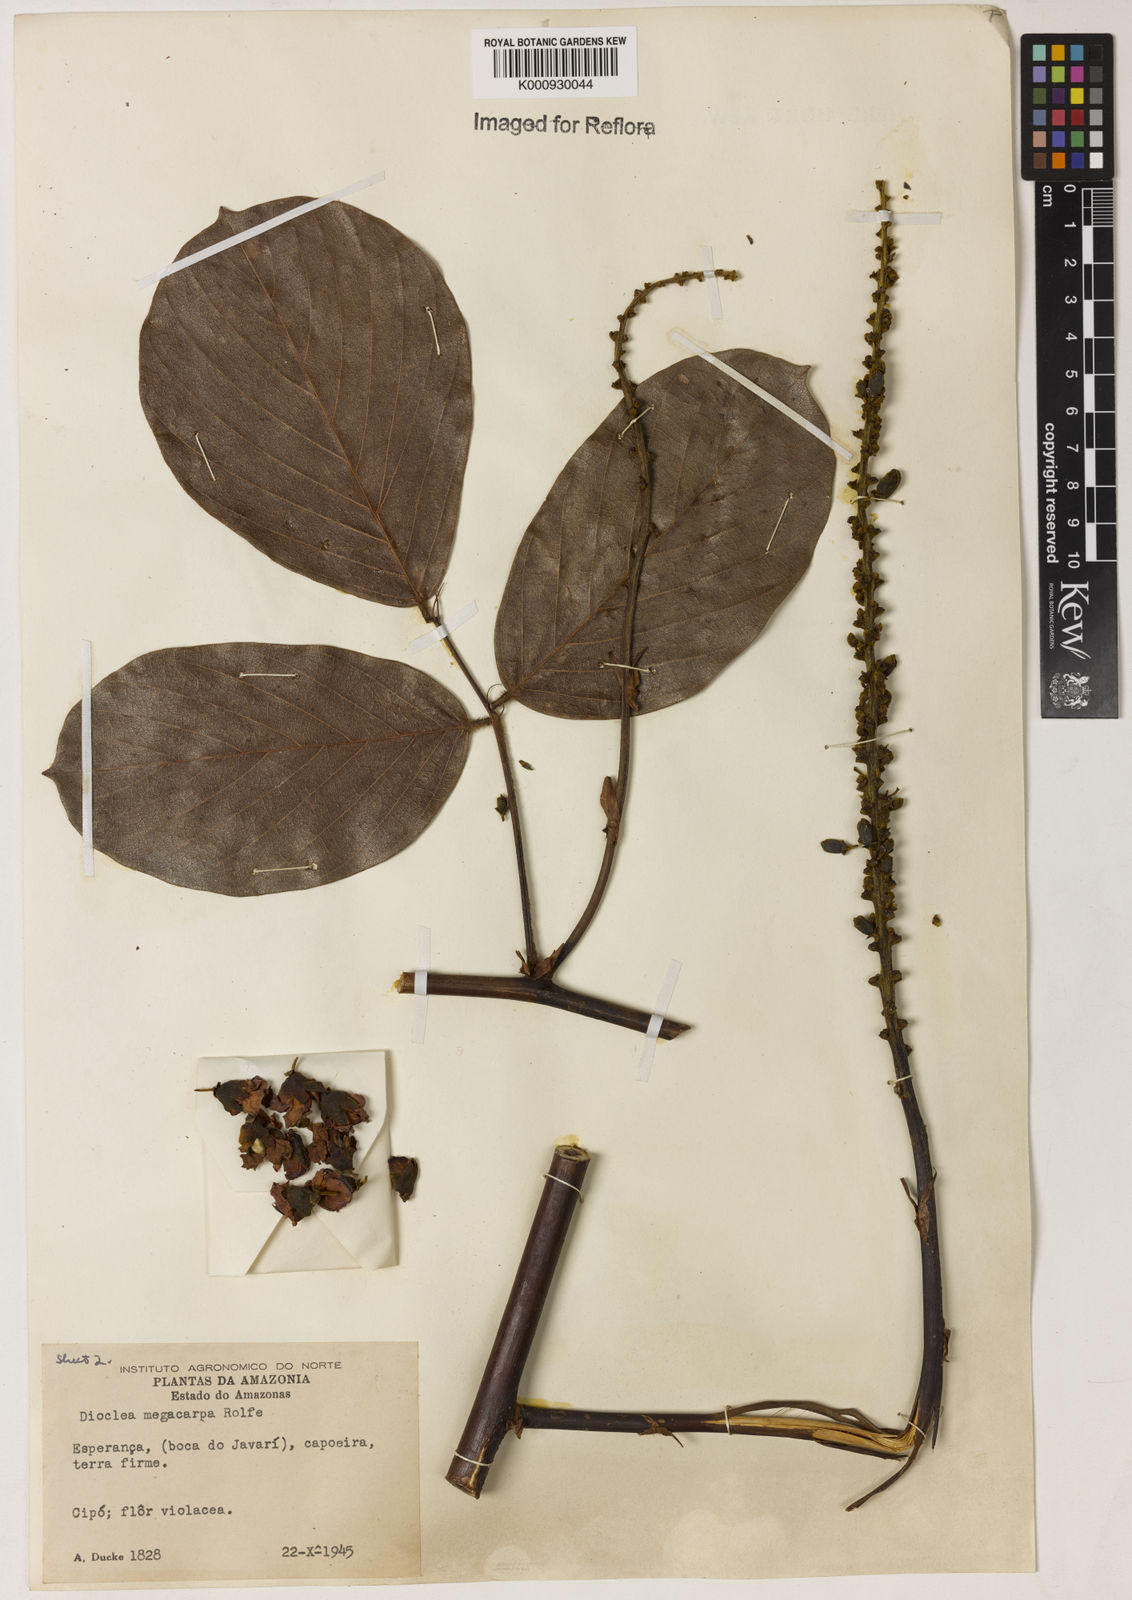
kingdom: Plantae
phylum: Tracheophyta
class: Magnoliopsida
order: Fabales
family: Fabaceae
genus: Macropsychanthus
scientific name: Macropsychanthus megacarpus
